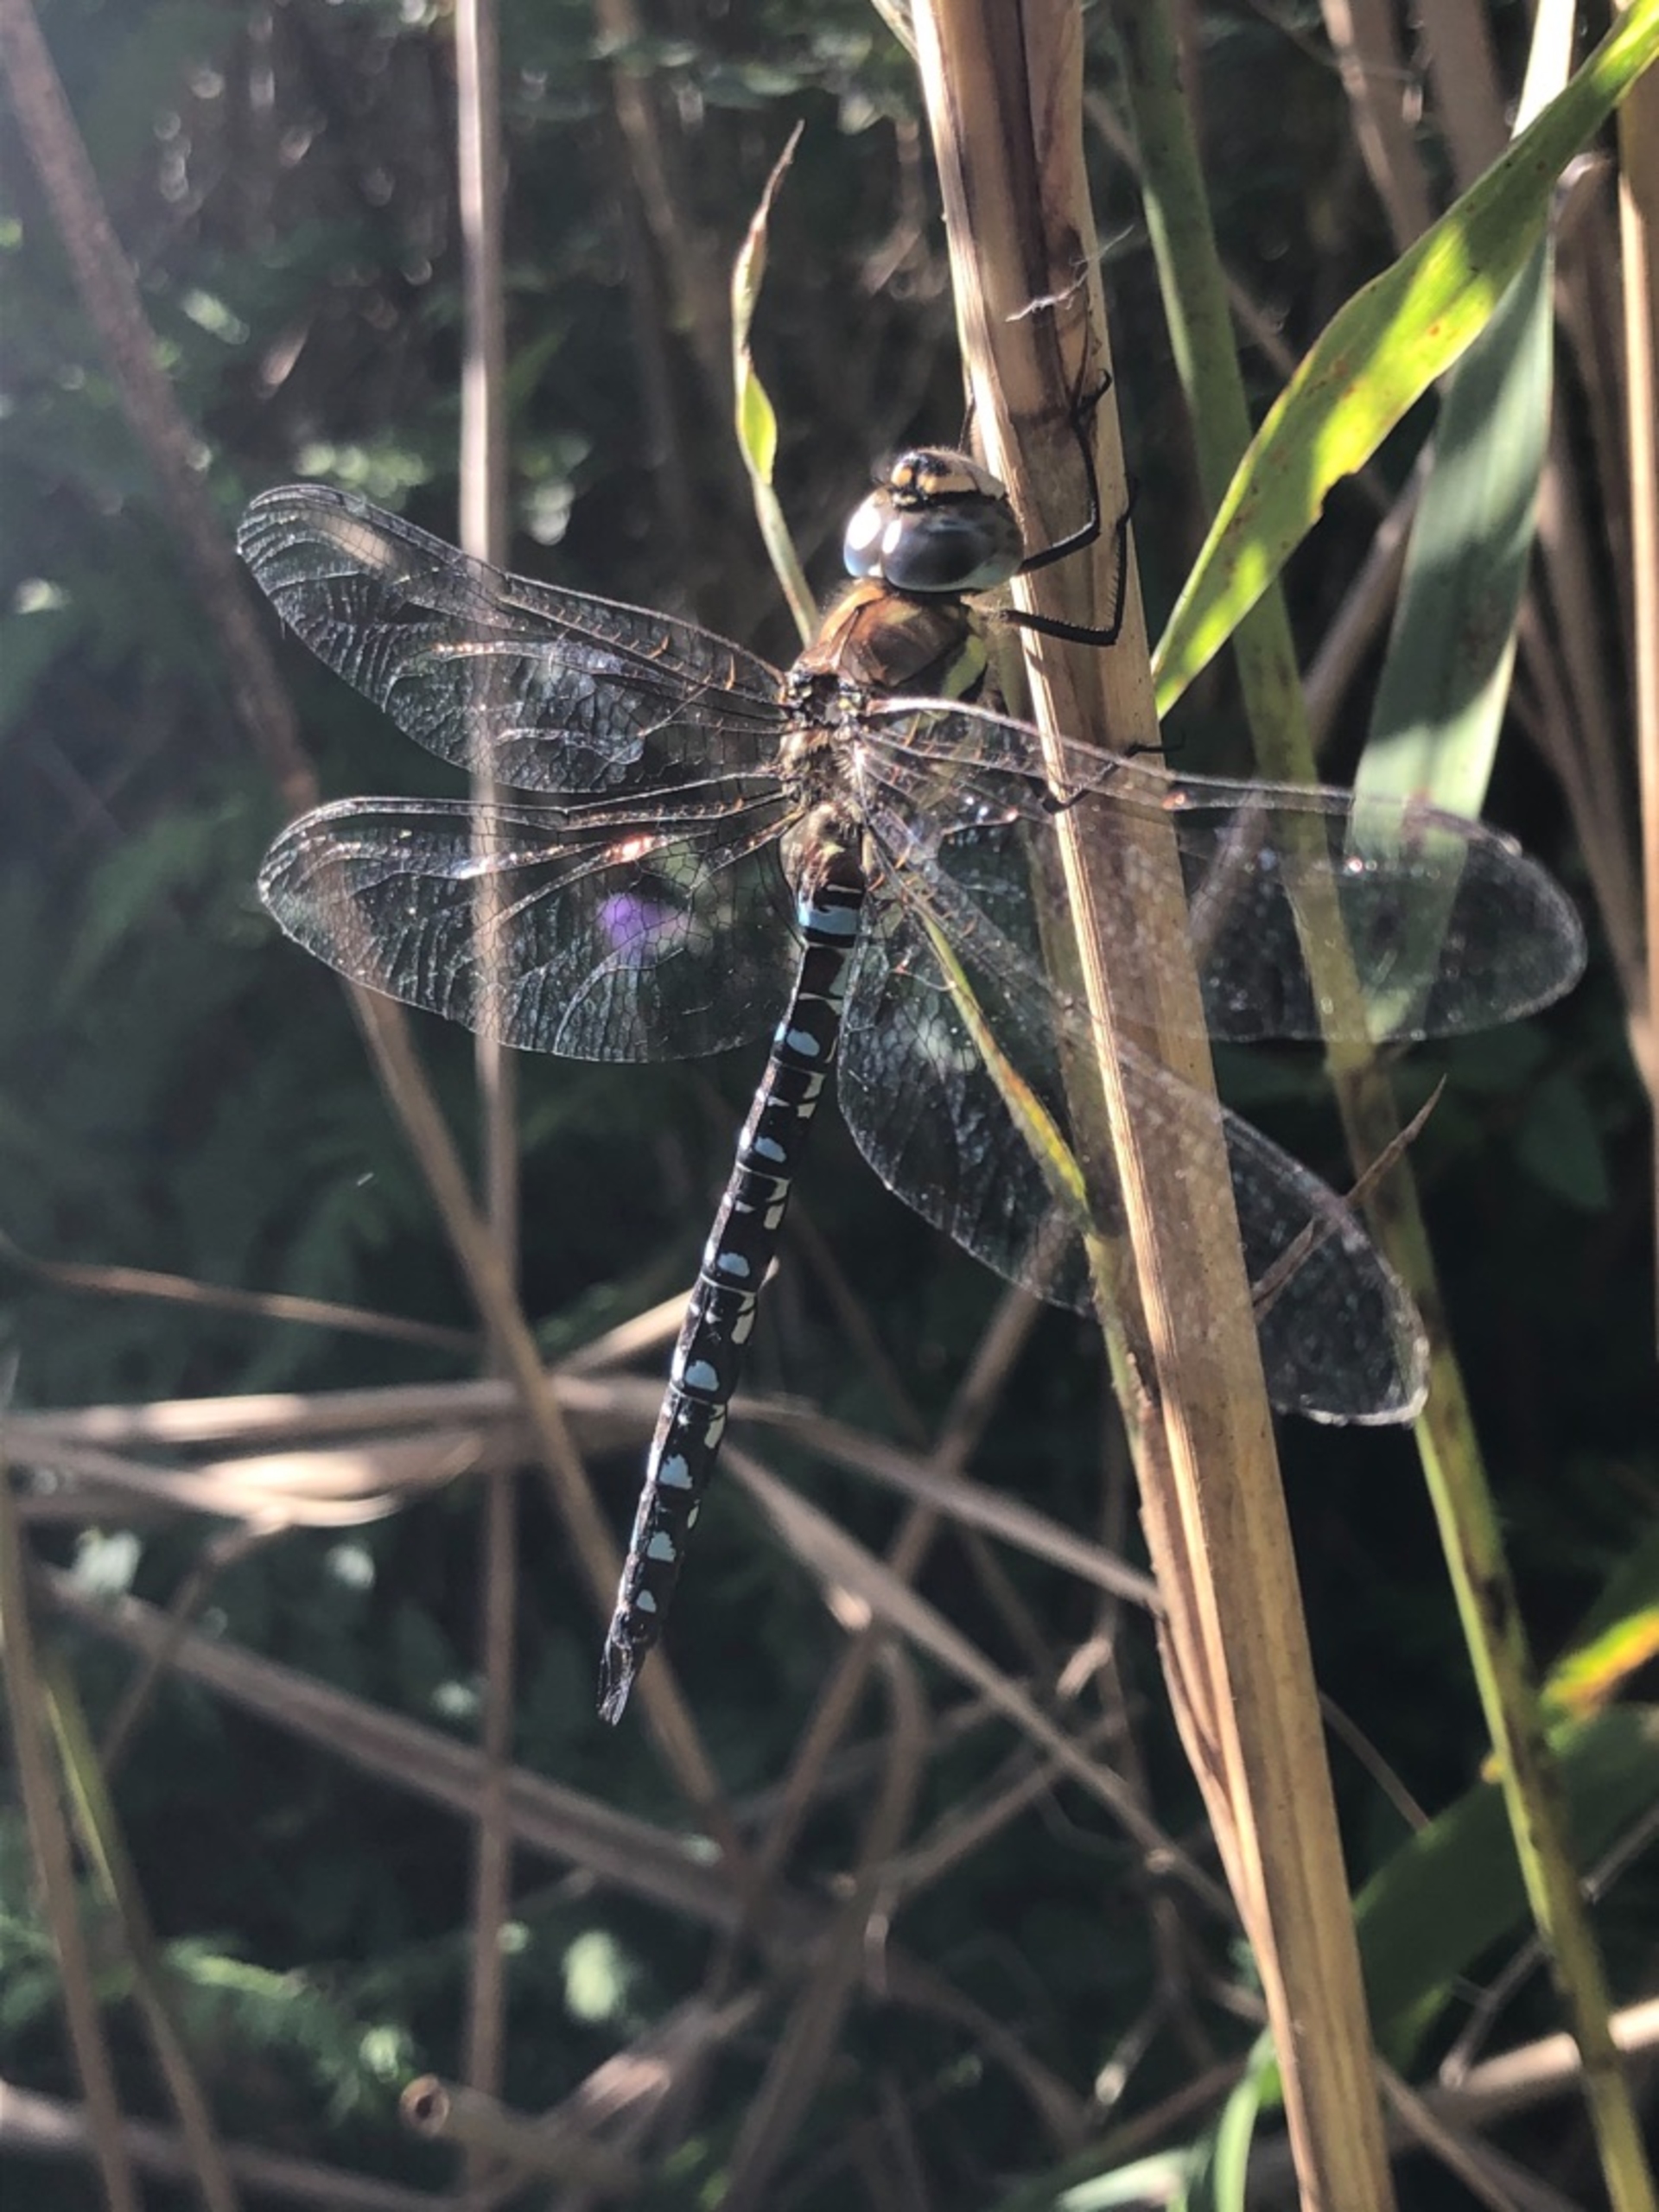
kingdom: Animalia
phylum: Arthropoda
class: Insecta
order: Odonata
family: Aeshnidae
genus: Aeshna
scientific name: Aeshna mixta
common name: Efterårs-mosaikguldsmed
